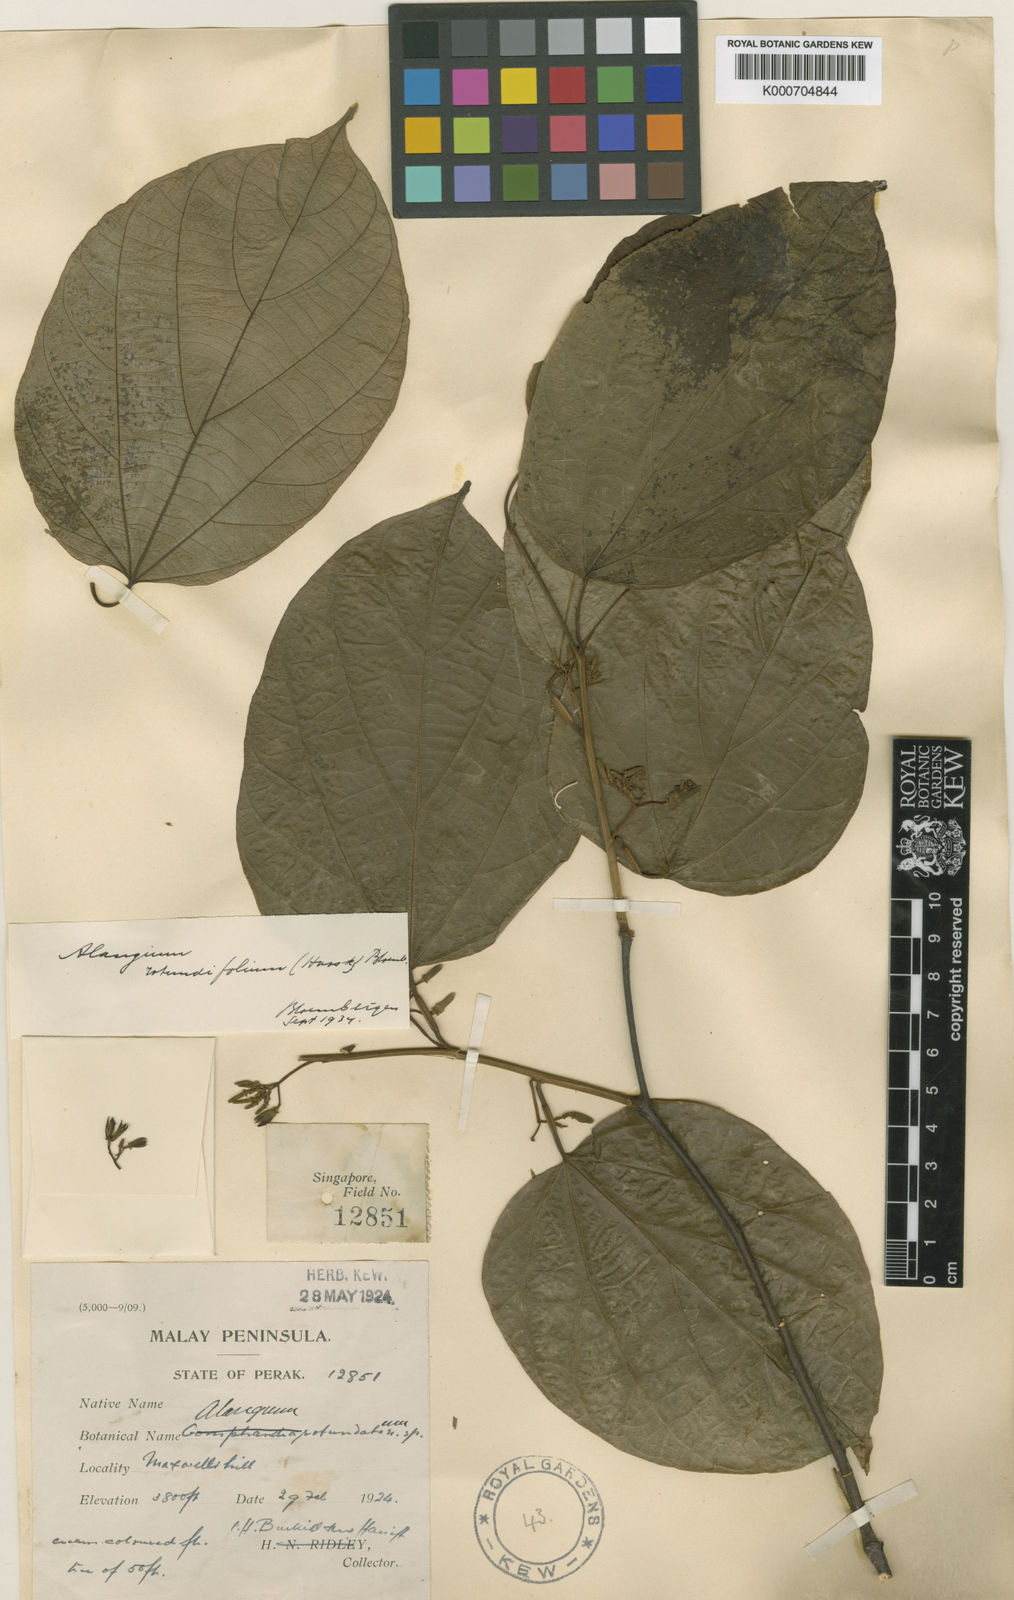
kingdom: Plantae
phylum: Tracheophyta
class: Magnoliopsida
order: Cornales
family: Cornaceae
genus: Alangium
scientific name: Alangium rotundifolium
